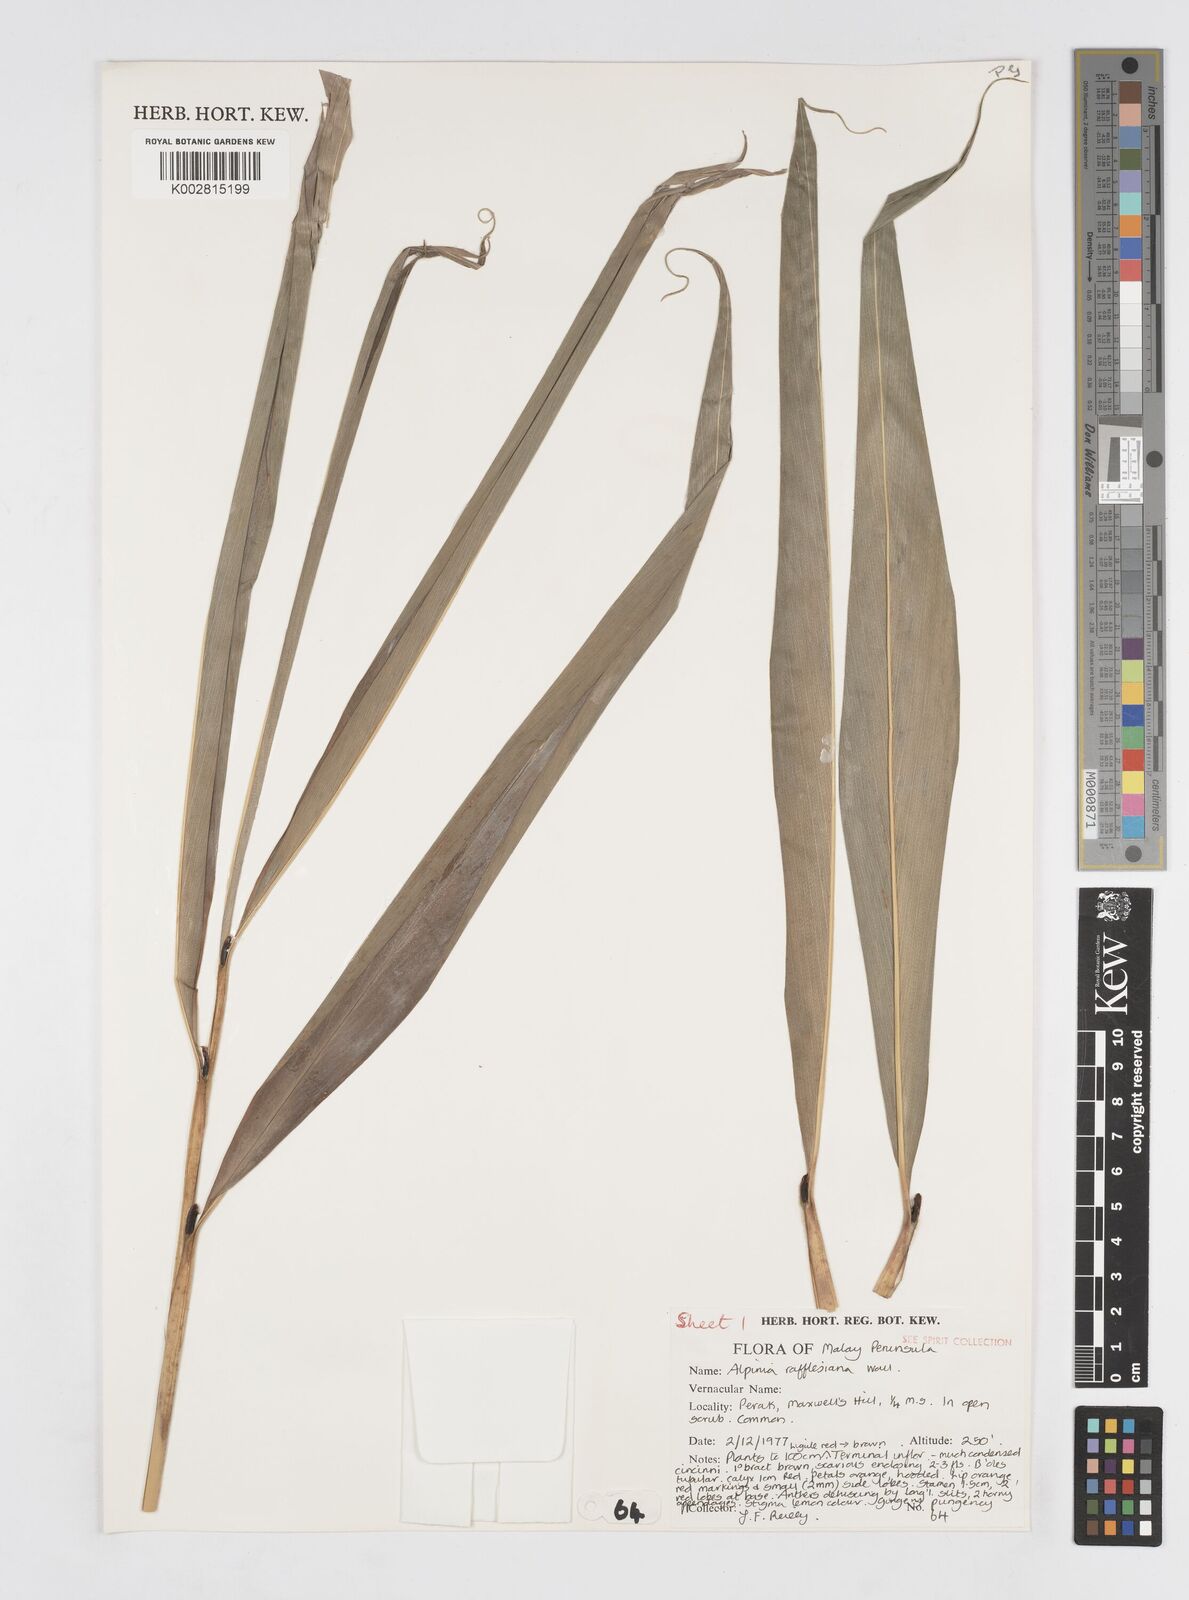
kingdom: Plantae
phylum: Tracheophyta
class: Liliopsida
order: Zingiberales
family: Zingiberaceae
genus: Alpinia
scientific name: Alpinia rafflesiana
